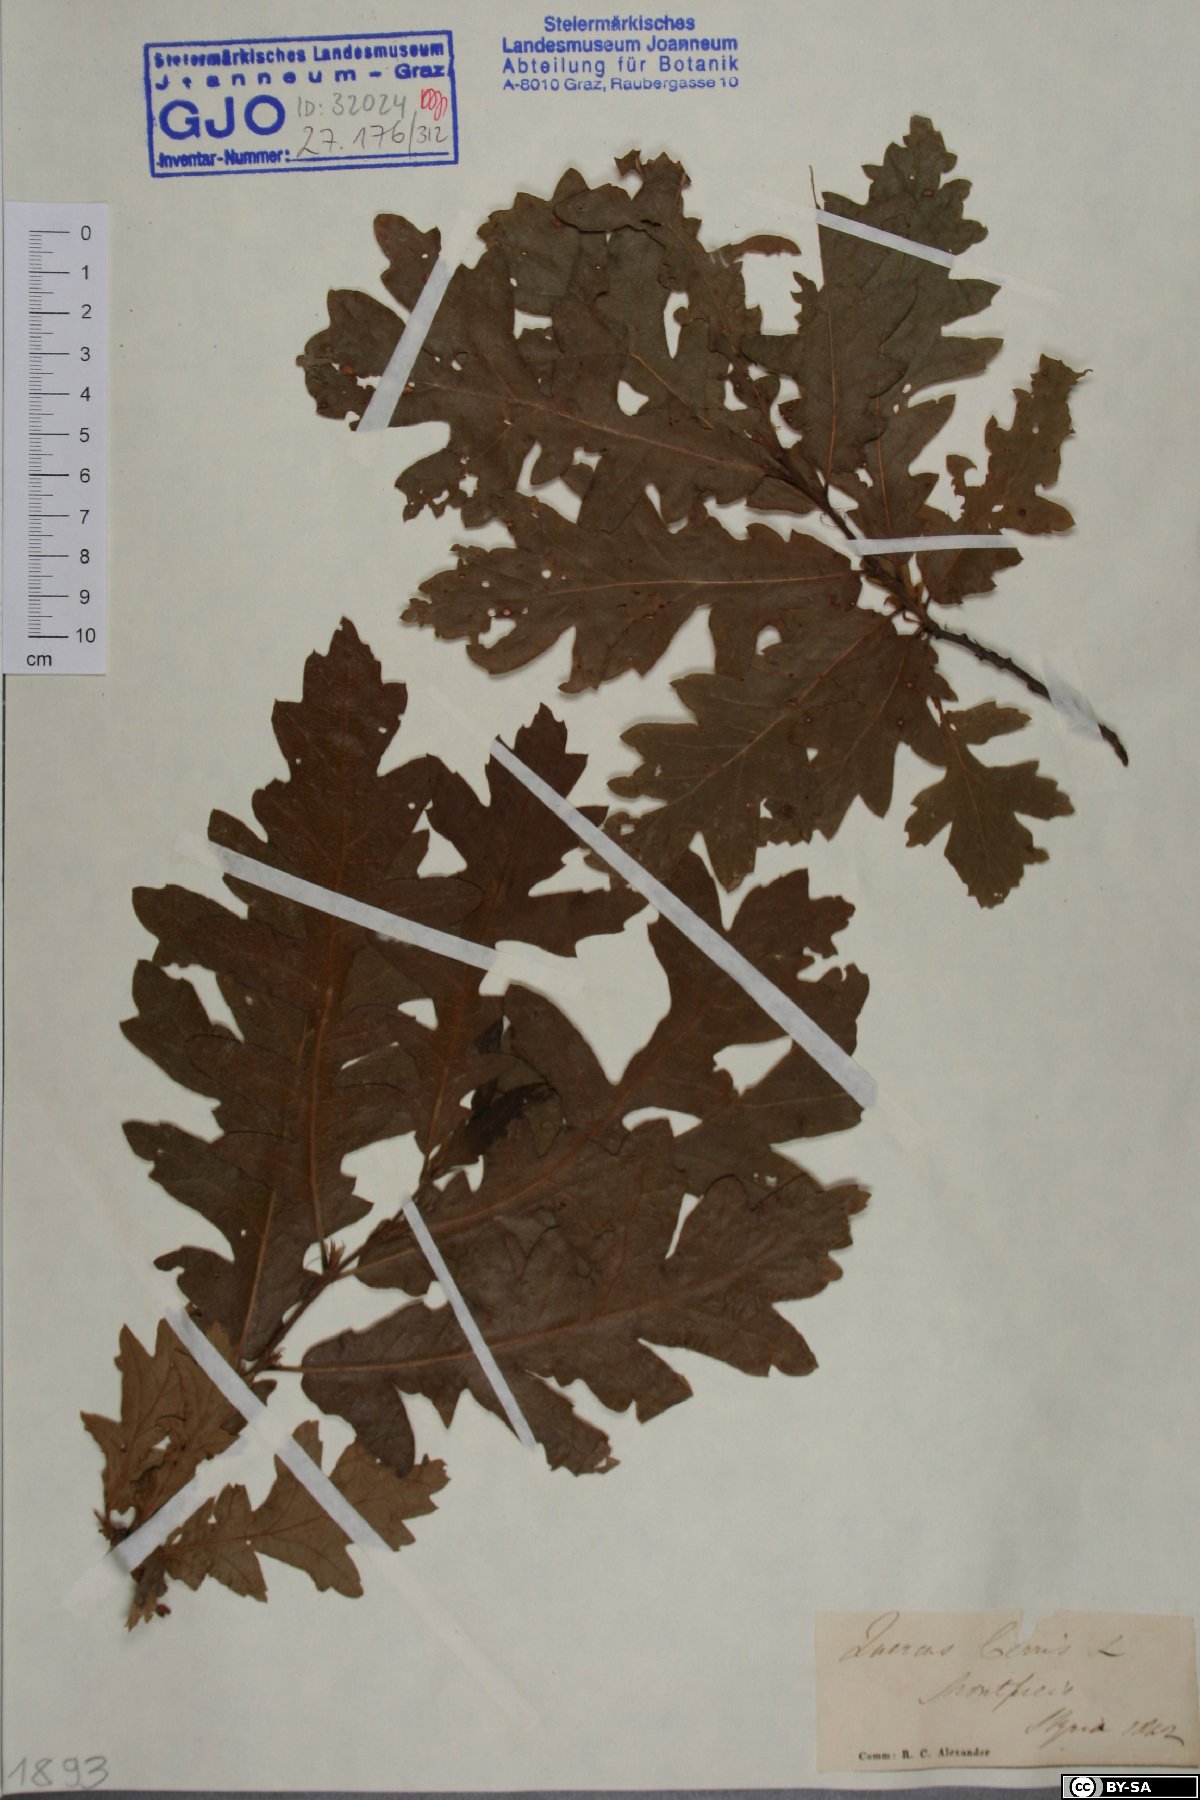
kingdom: Plantae
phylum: Tracheophyta
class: Magnoliopsida
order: Fagales
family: Fagaceae
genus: Quercus
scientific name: Quercus cerris
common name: Turkey oak
